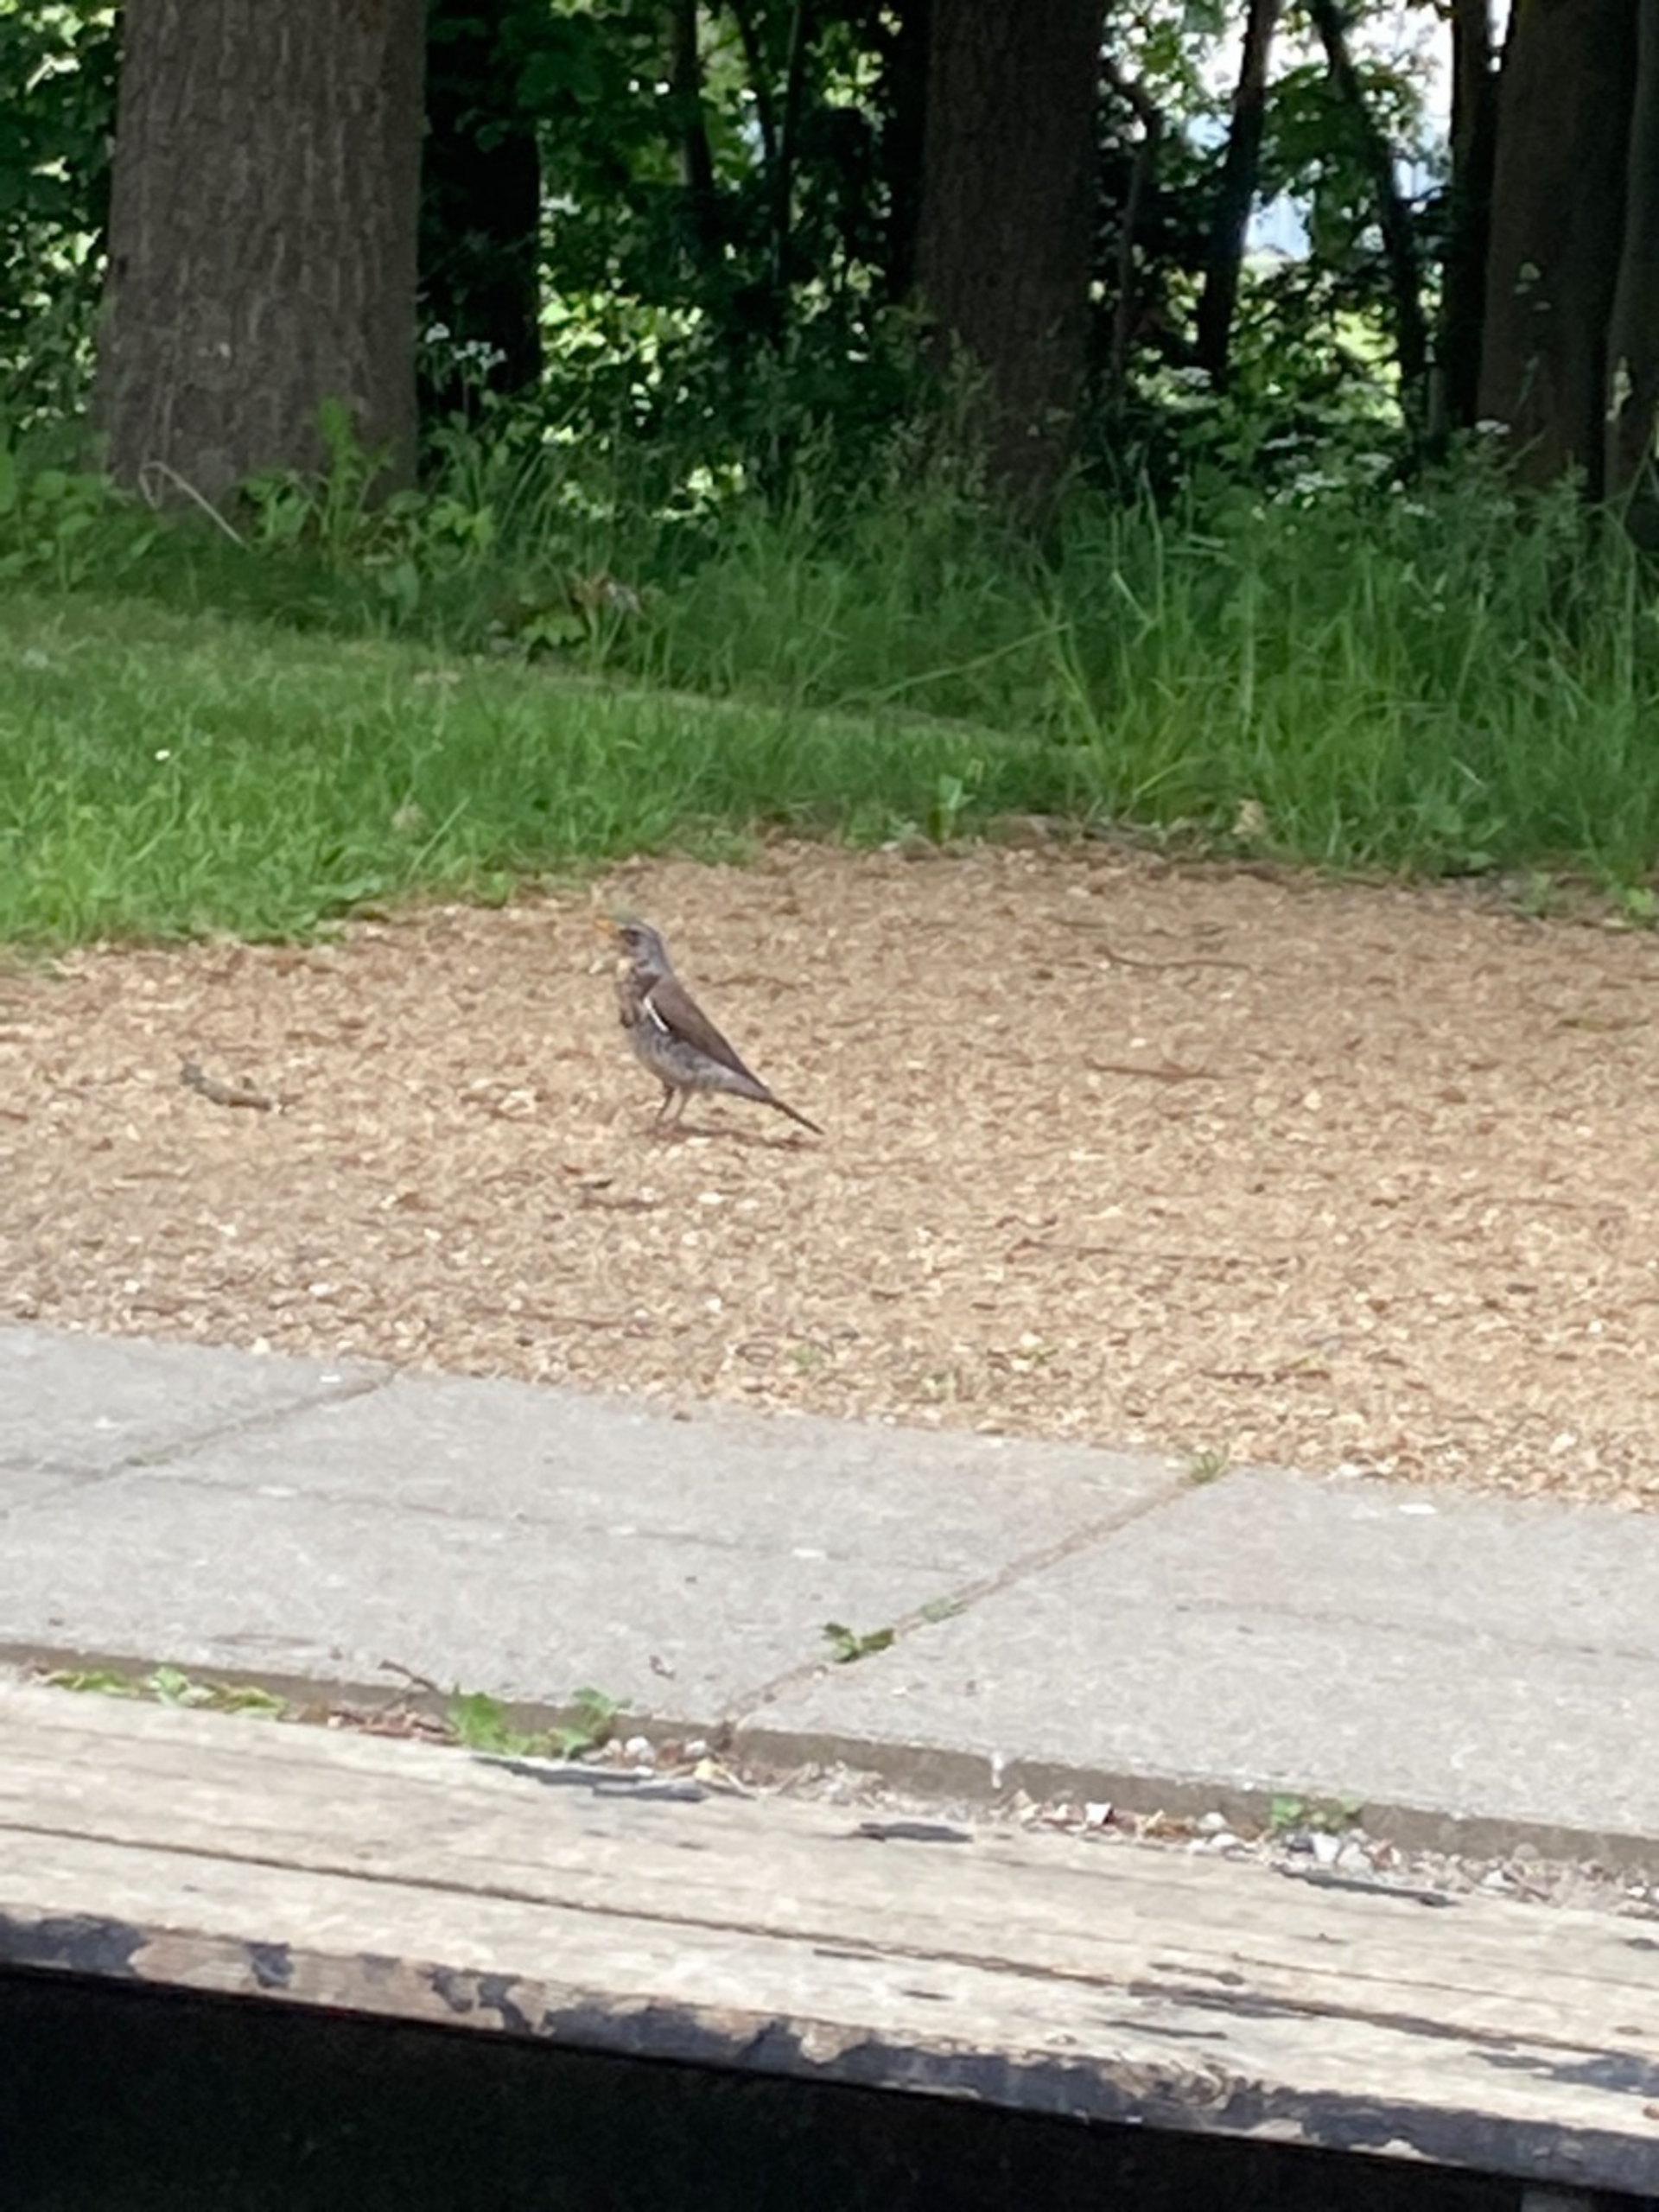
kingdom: Animalia
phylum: Chordata
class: Aves
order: Passeriformes
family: Turdidae
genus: Turdus
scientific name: Turdus pilaris
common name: Sjagger
